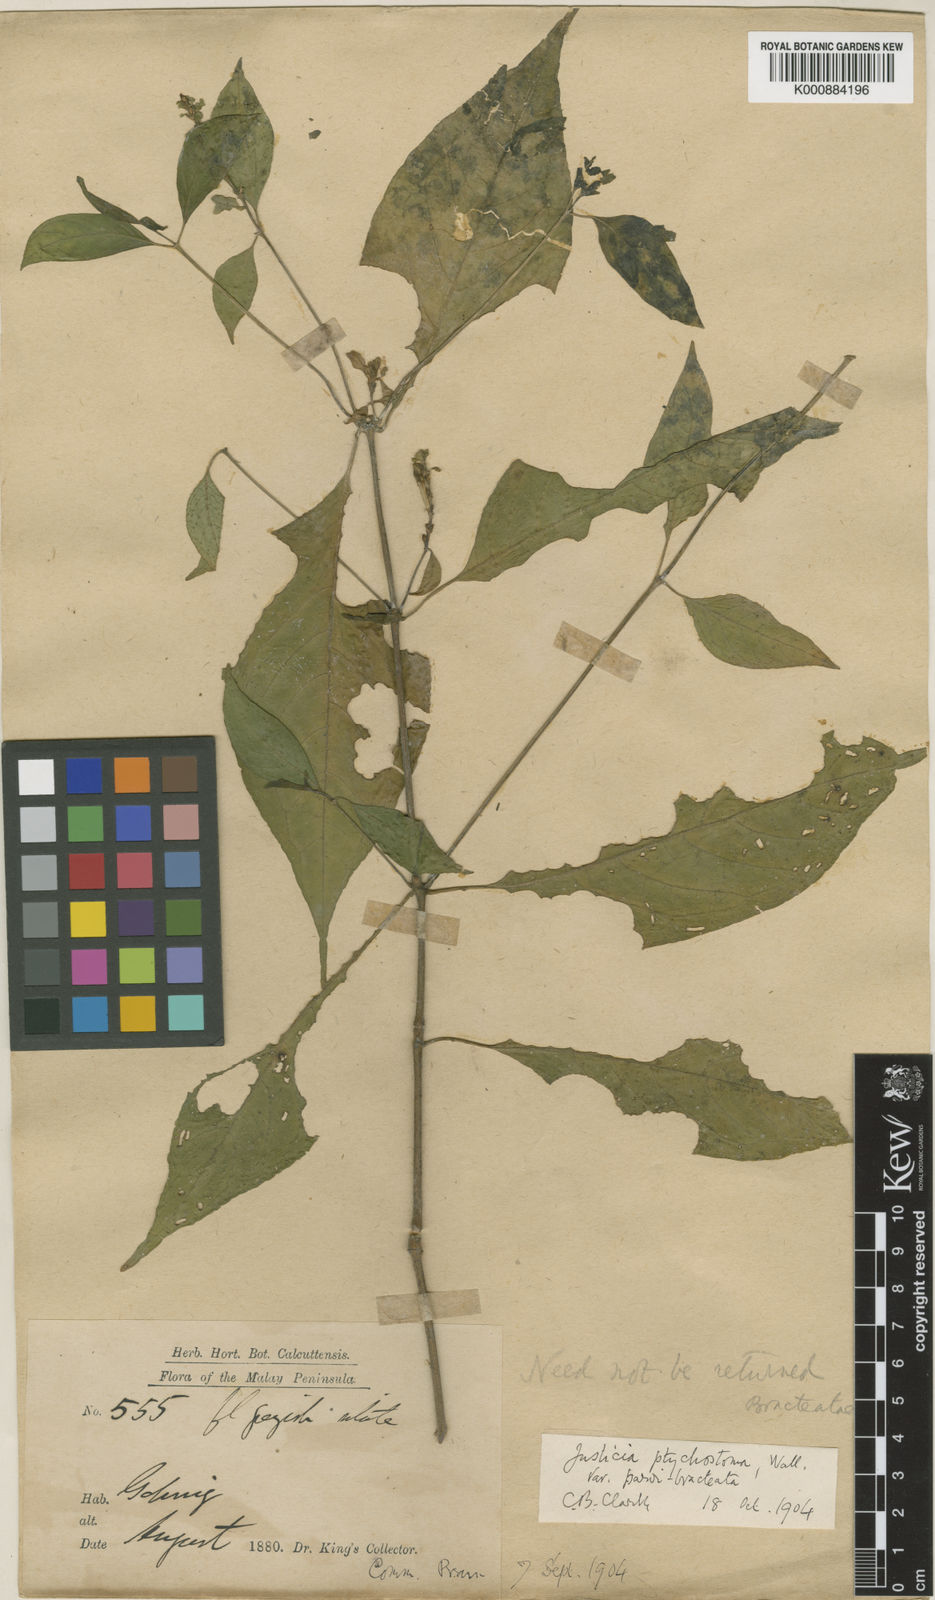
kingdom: Plantae
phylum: Tracheophyta
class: Magnoliopsida
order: Lamiales
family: Acanthaceae
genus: Justicia
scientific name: Justicia sumatrana
